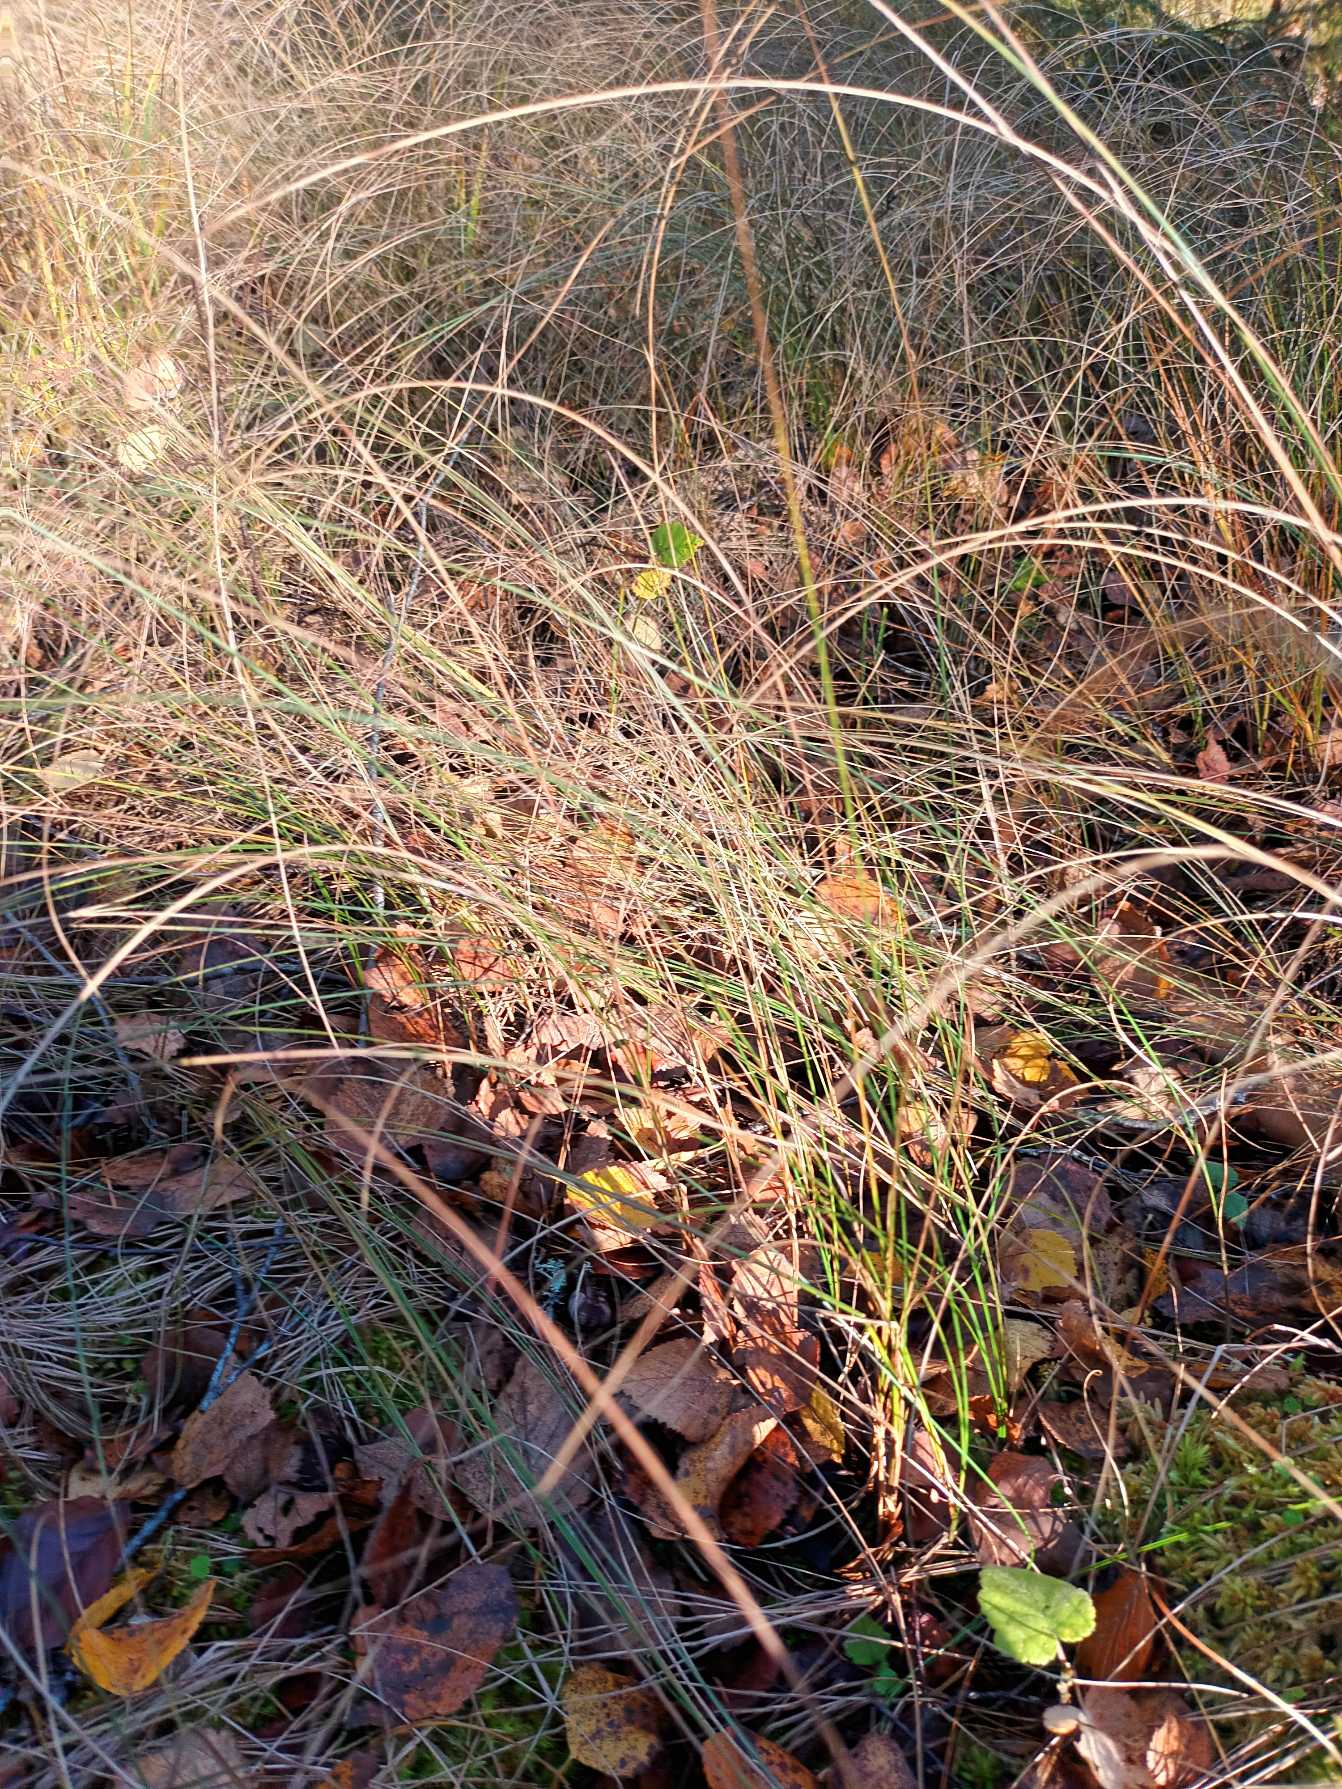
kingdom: Plantae
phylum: Tracheophyta
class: Liliopsida
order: Poales
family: Cyperaceae
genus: Carex
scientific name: Carex lasiocarpa
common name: Tråd-star
